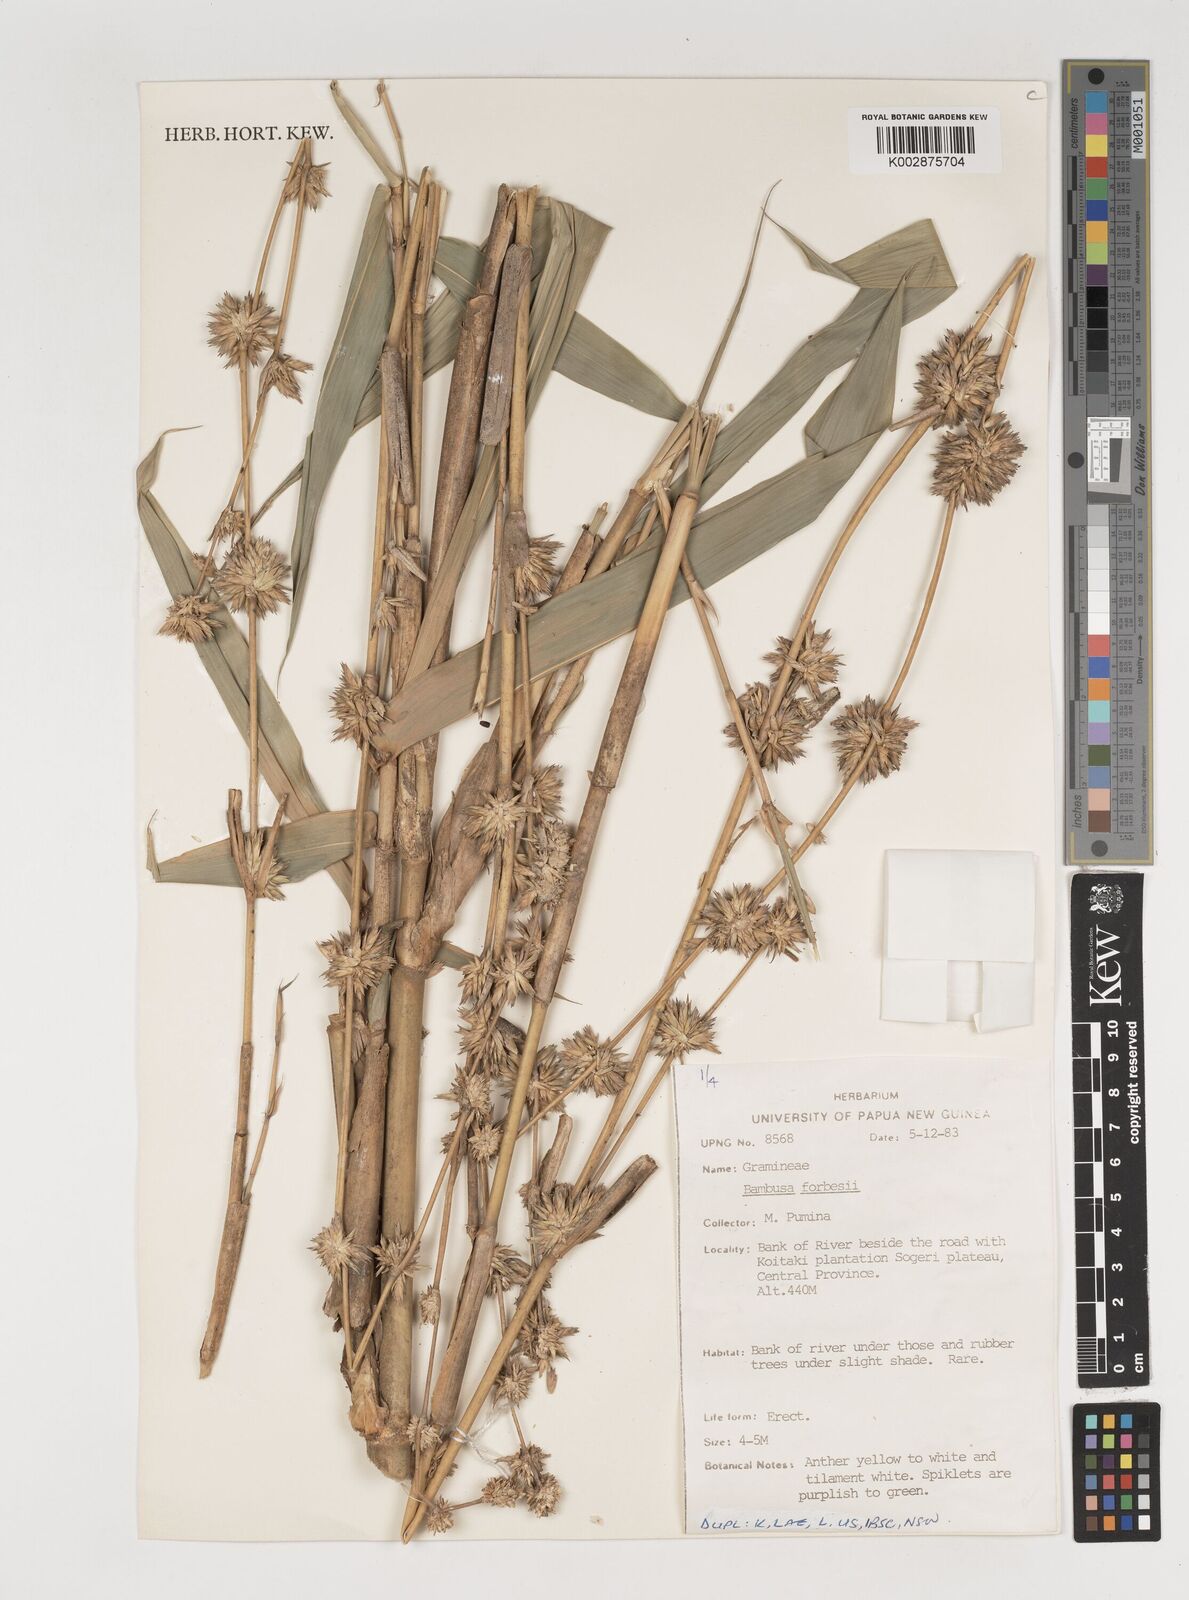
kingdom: Plantae
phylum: Tracheophyta
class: Liliopsida
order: Poales
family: Poaceae
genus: Neololeba
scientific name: Neololeba atra
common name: Cape bamboo
